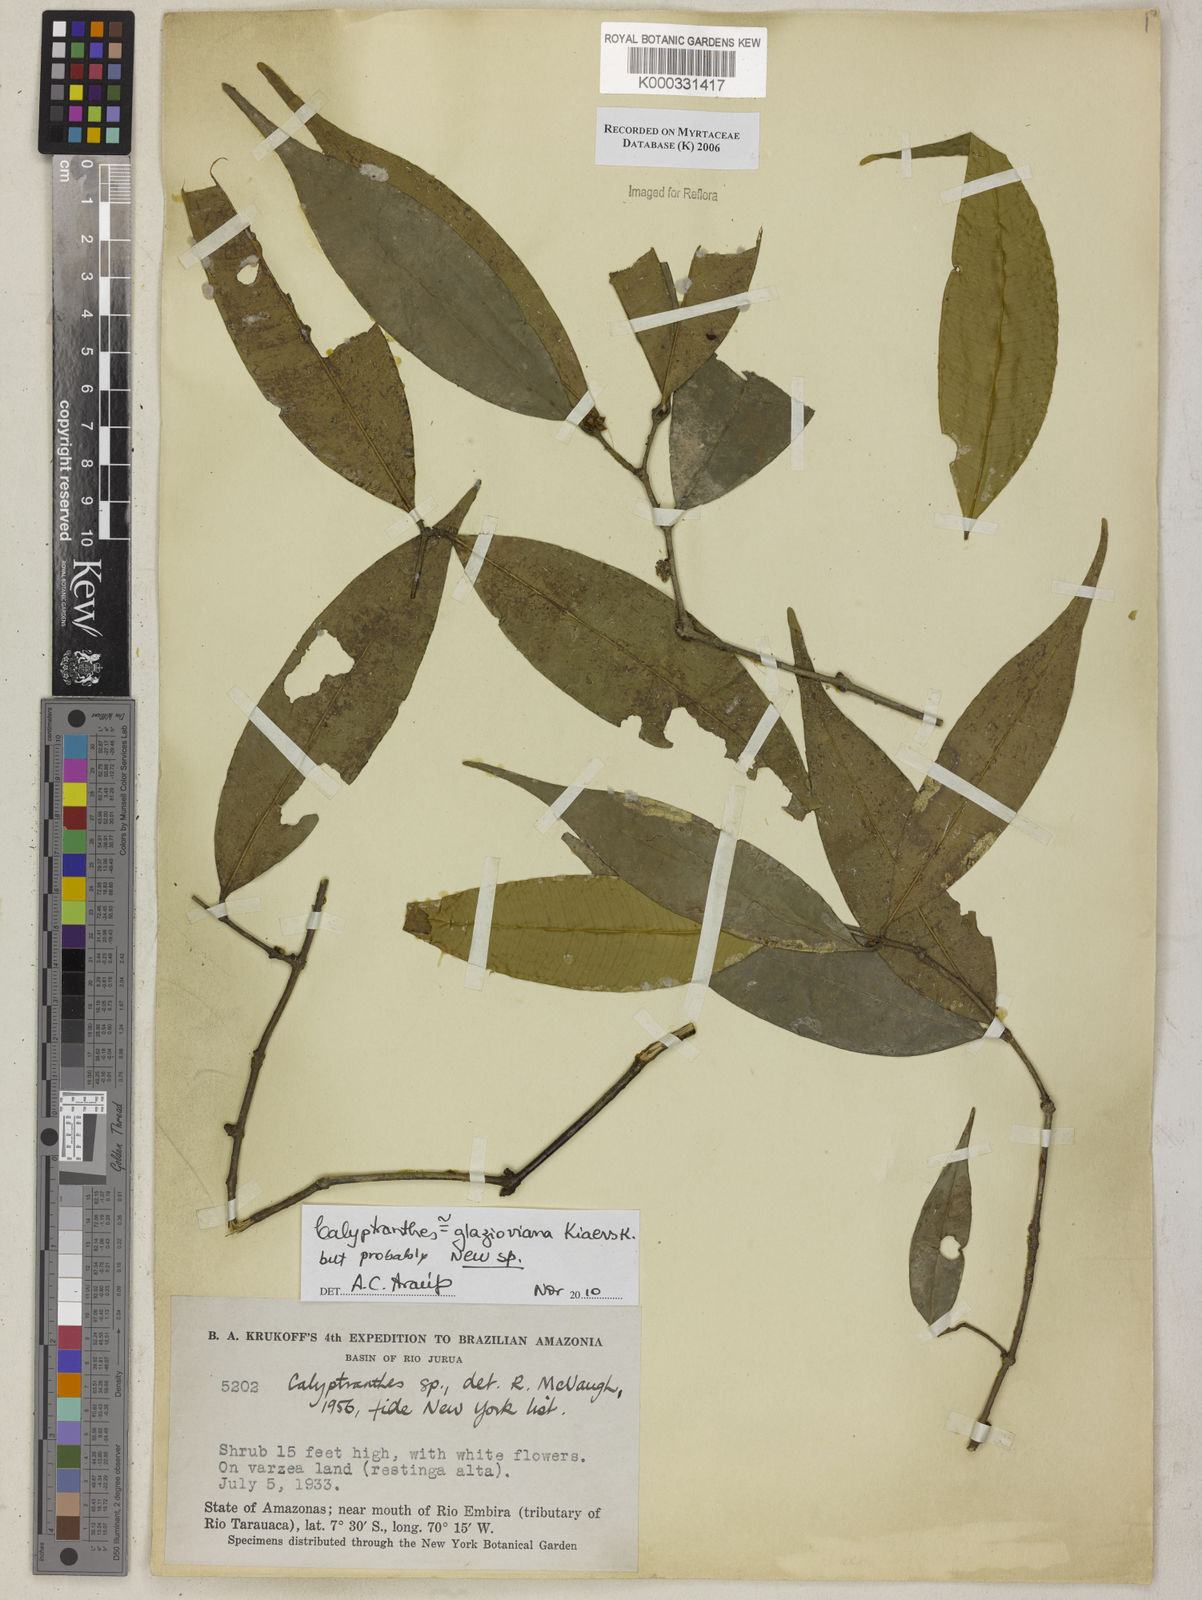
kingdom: Plantae
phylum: Tracheophyta
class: Magnoliopsida
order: Myrtales
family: Myrtaceae
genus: Calyptranthes
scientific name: Calyptranthes
